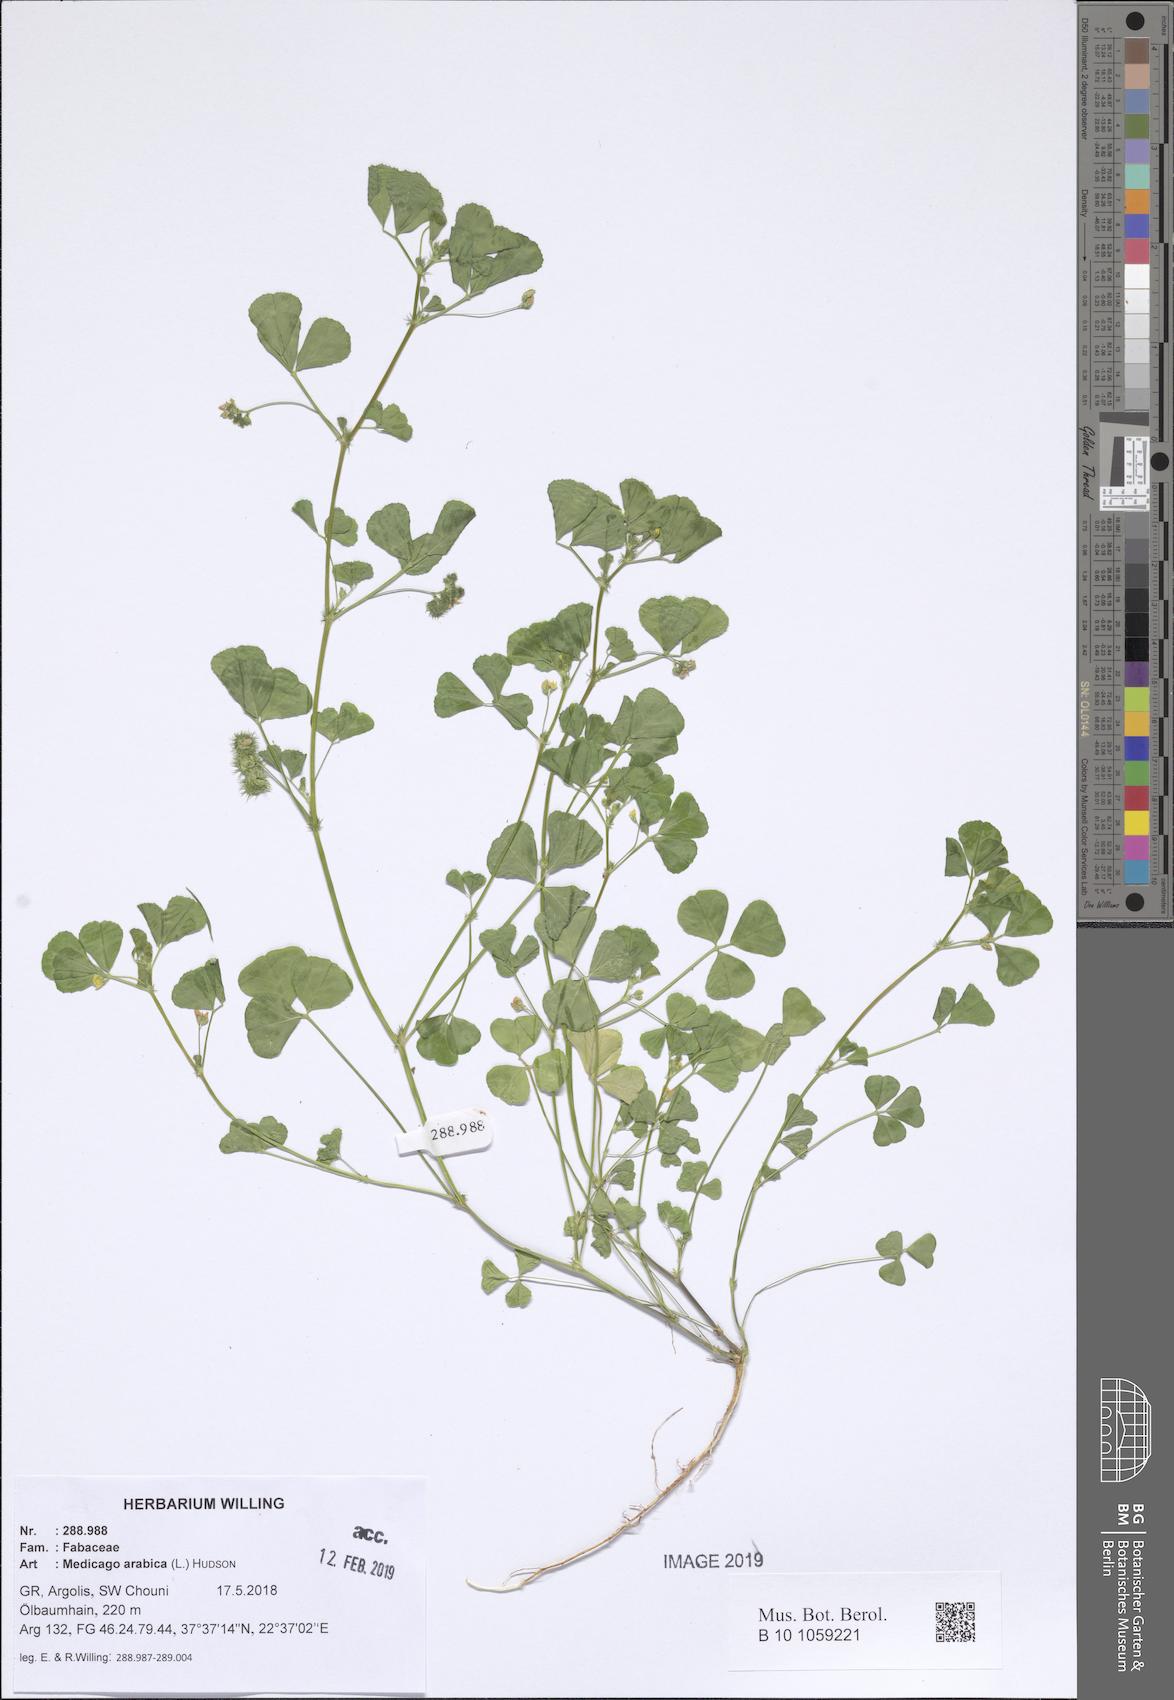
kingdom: Plantae
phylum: Tracheophyta
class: Magnoliopsida
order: Fabales
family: Fabaceae
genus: Medicago
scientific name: Medicago arabica
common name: Spotted medick
